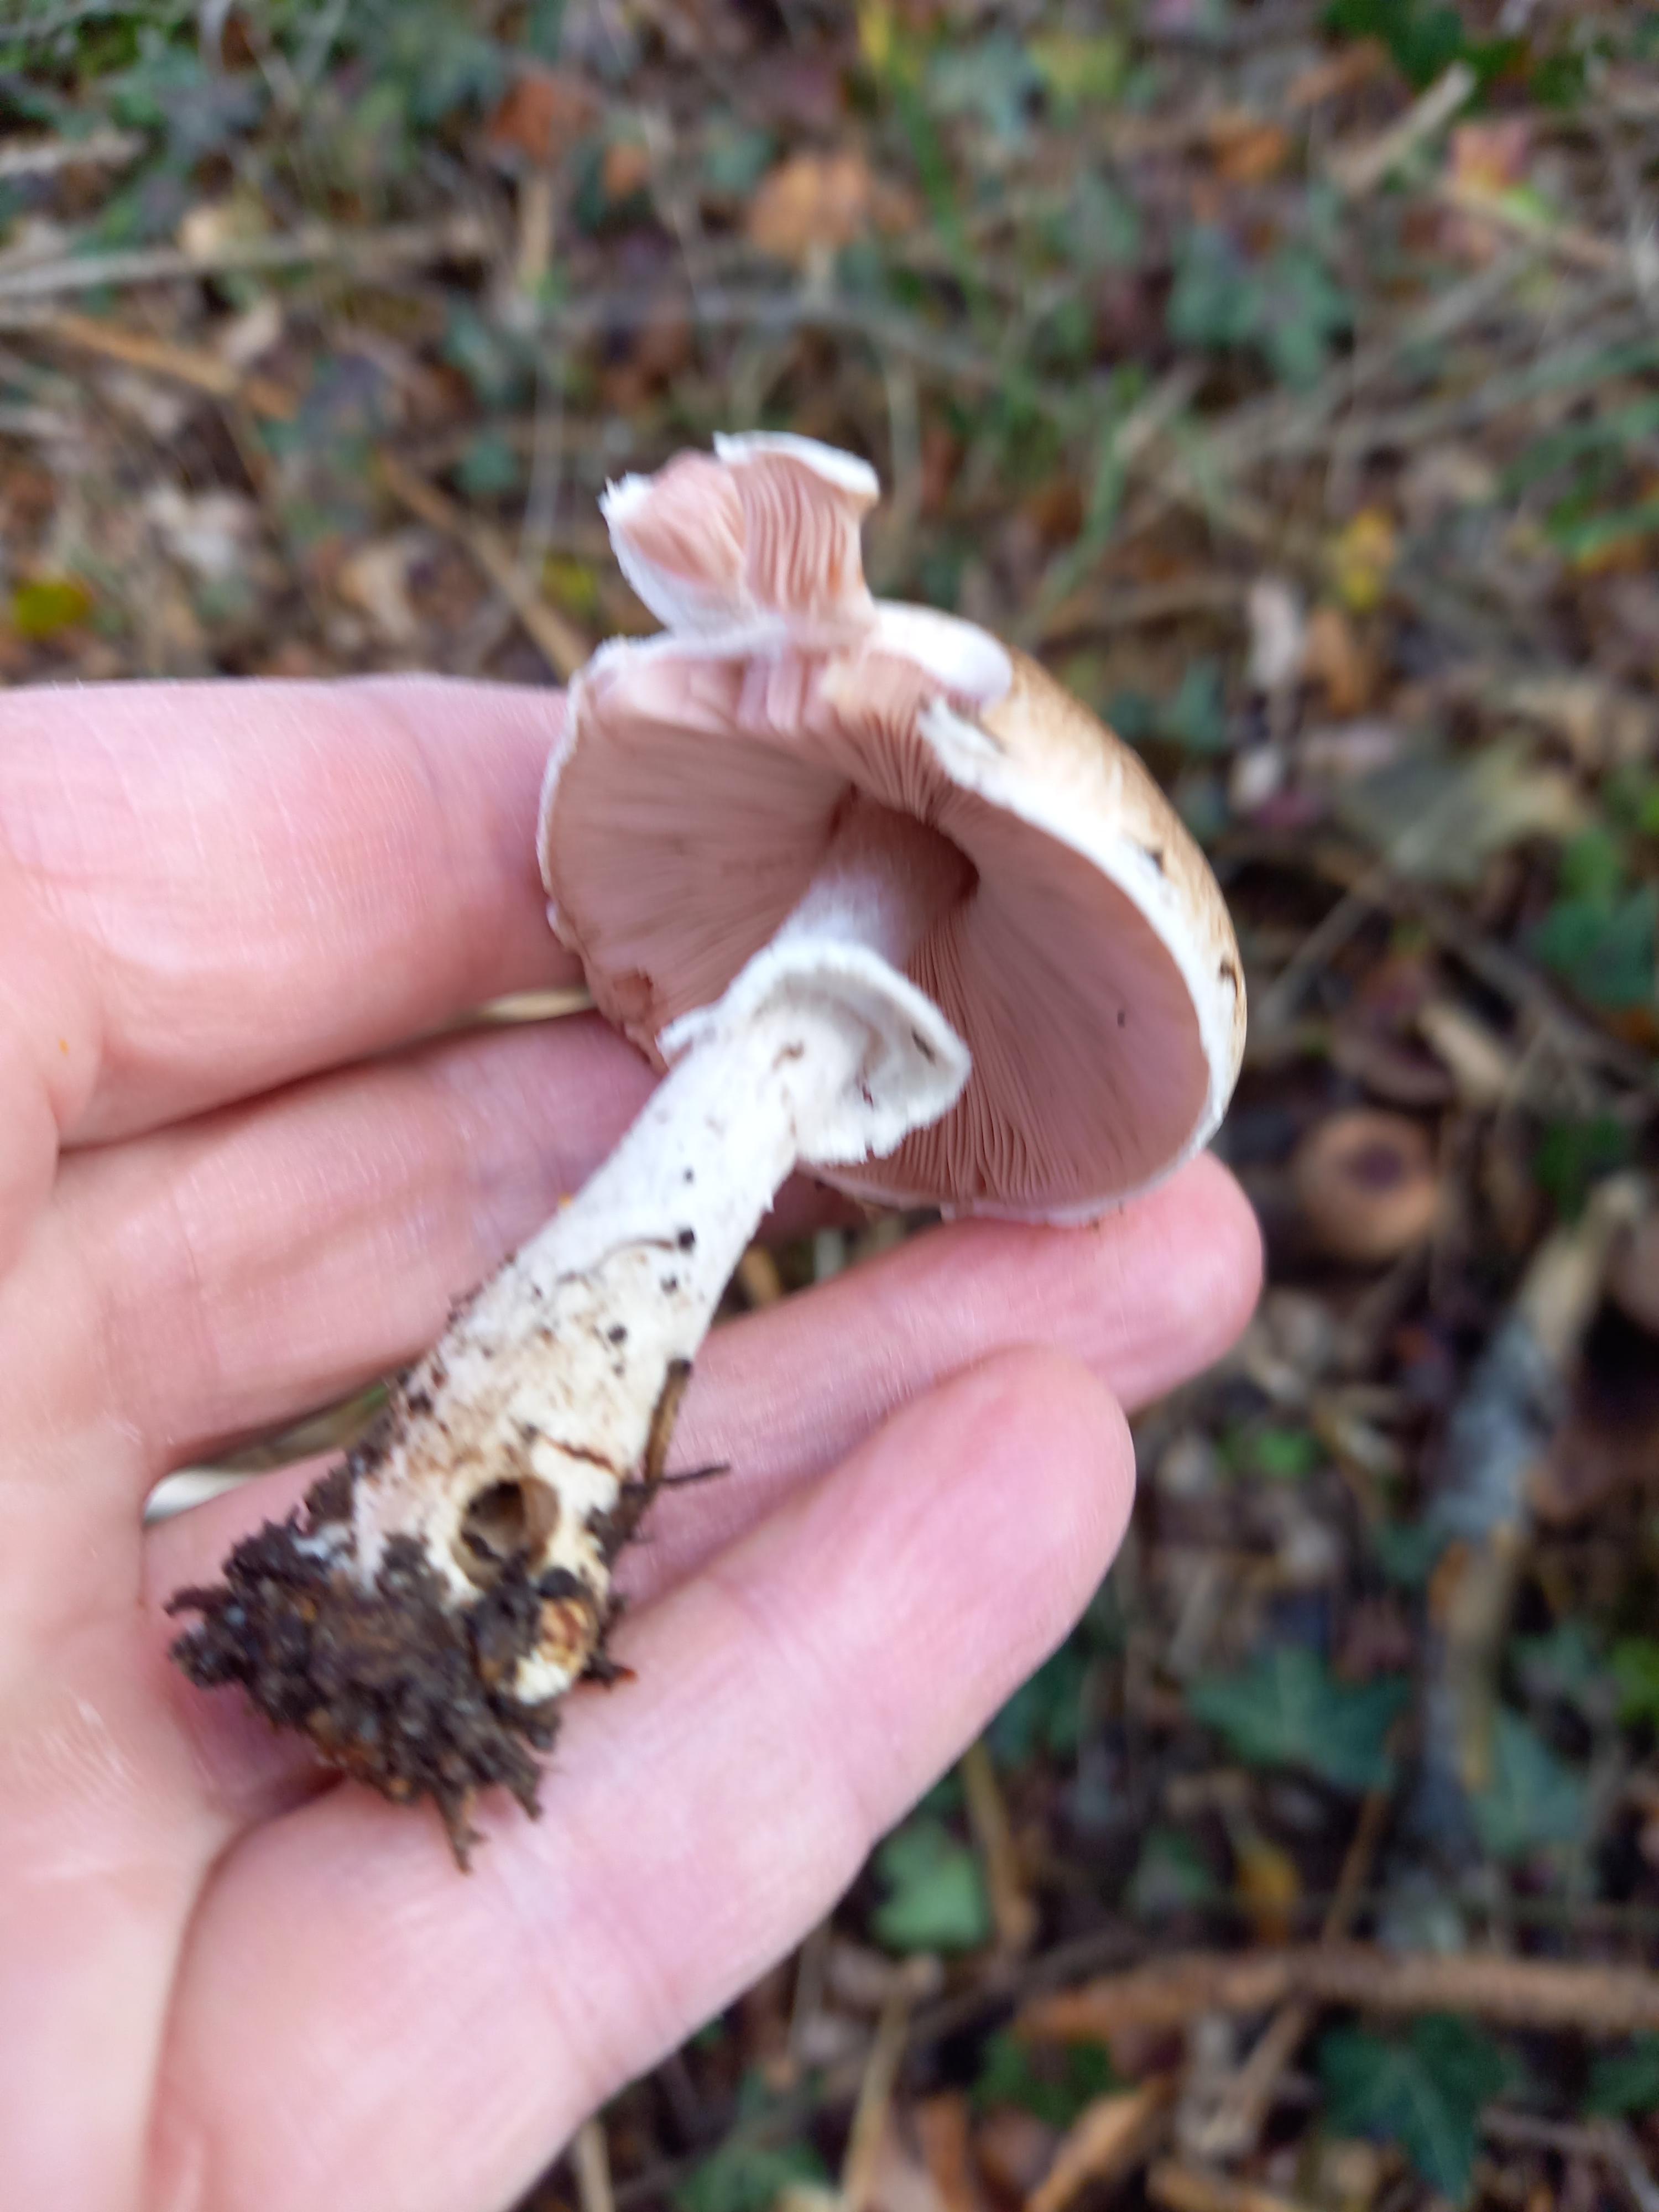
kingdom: Fungi
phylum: Basidiomycota
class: Agaricomycetes
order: Agaricales
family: Agaricaceae
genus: Agaricus
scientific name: Agaricus impudicus
